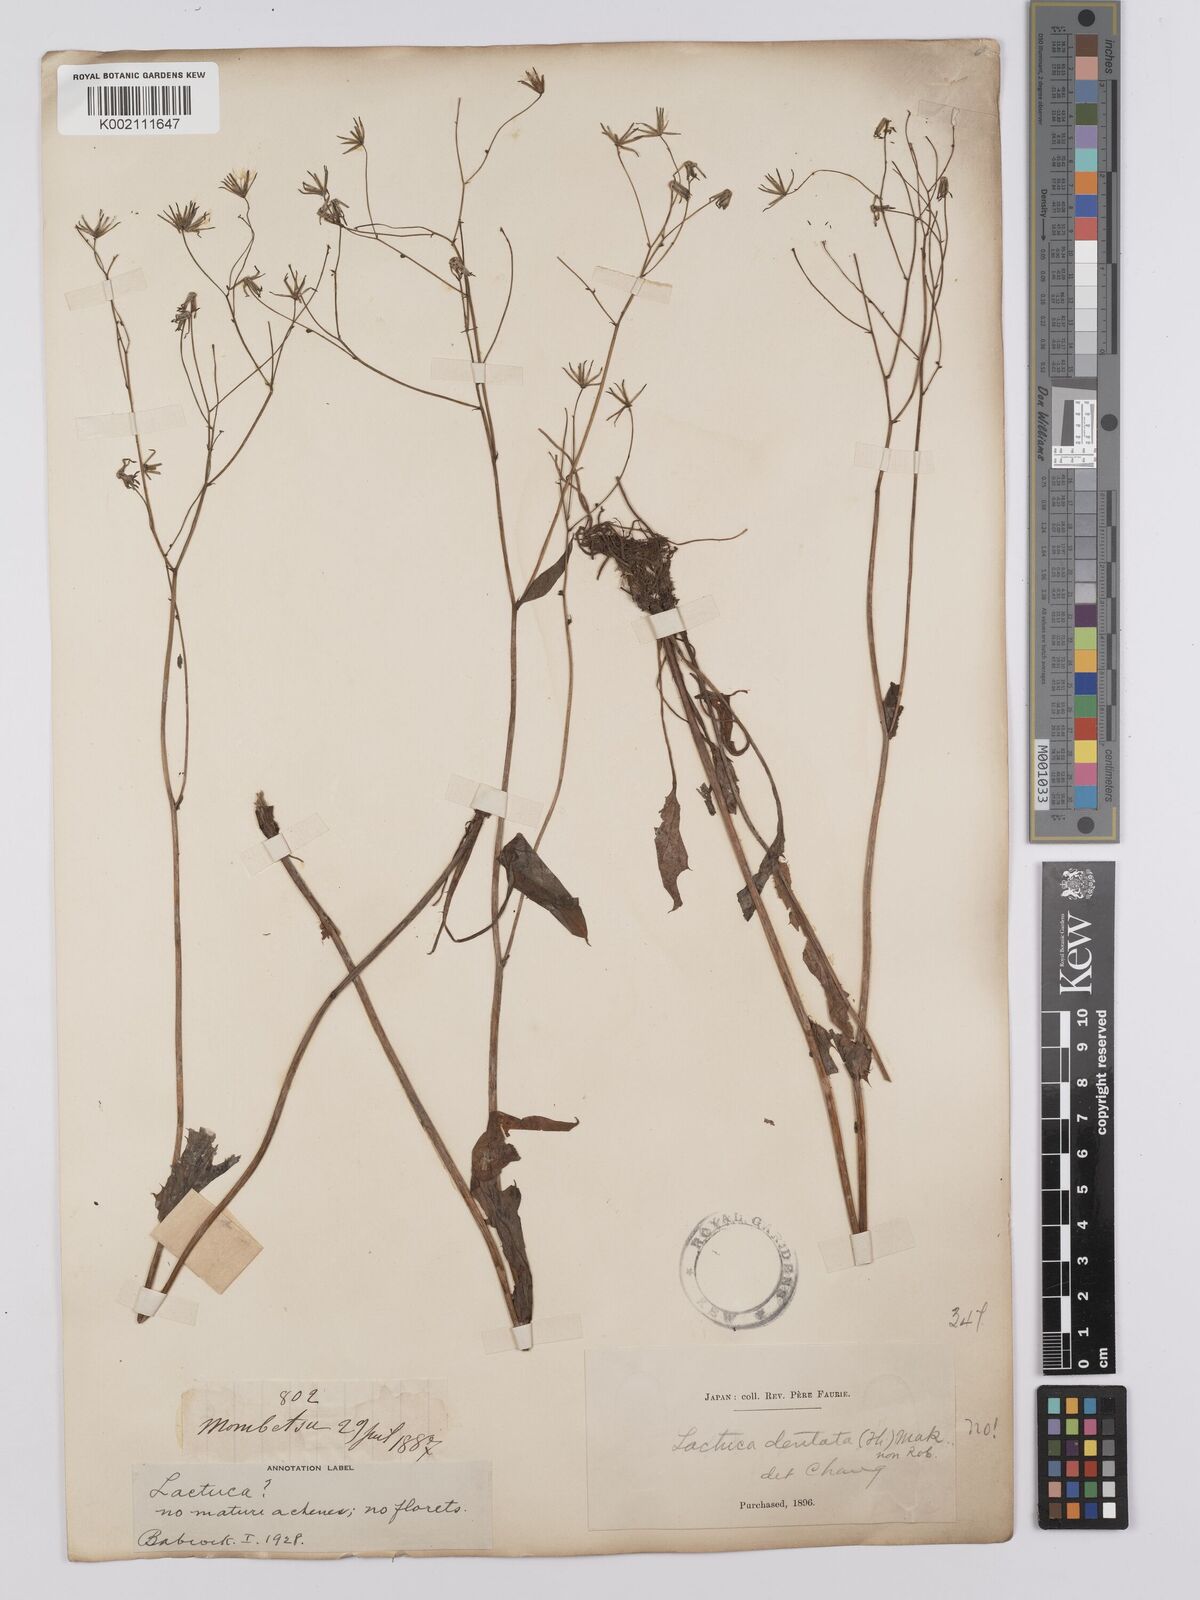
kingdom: Plantae
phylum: Tracheophyta
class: Magnoliopsida
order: Asterales
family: Asteraceae
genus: Ixeridium
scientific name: Ixeridium dentatum
